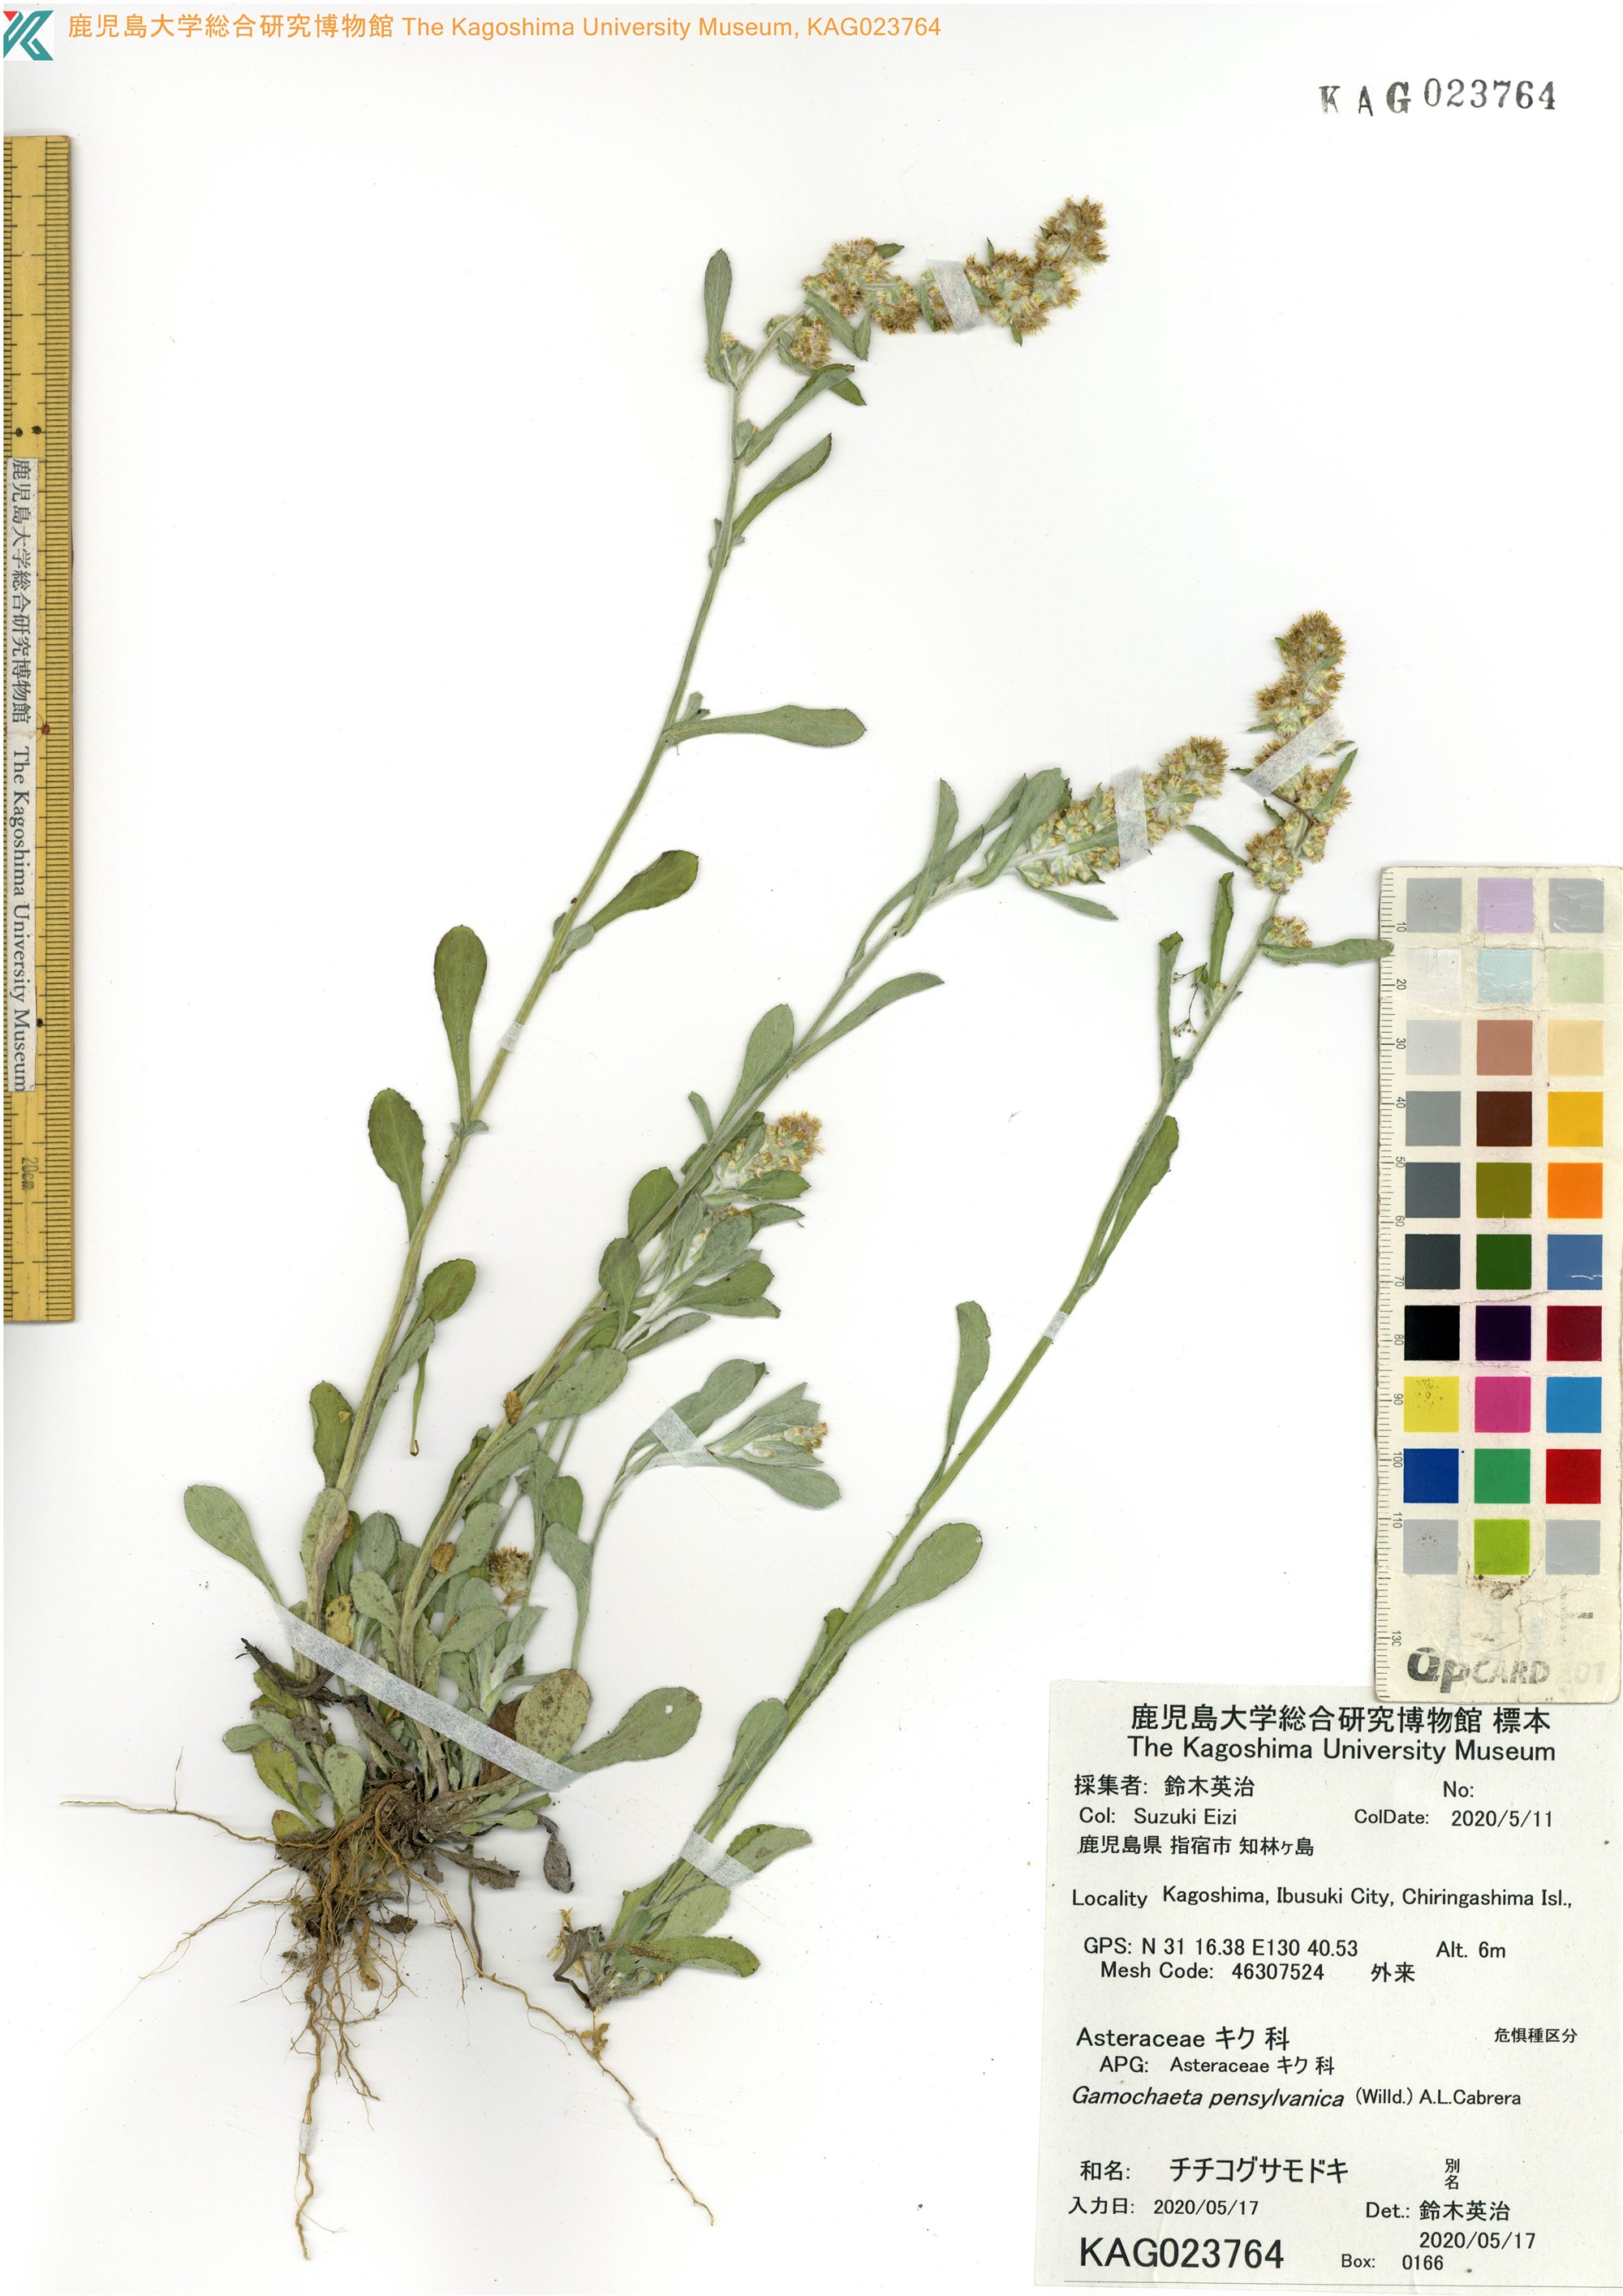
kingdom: Plantae
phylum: Tracheophyta
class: Magnoliopsida
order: Asterales
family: Asteraceae
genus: Gamochaeta
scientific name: Gamochaeta pensylvanica
